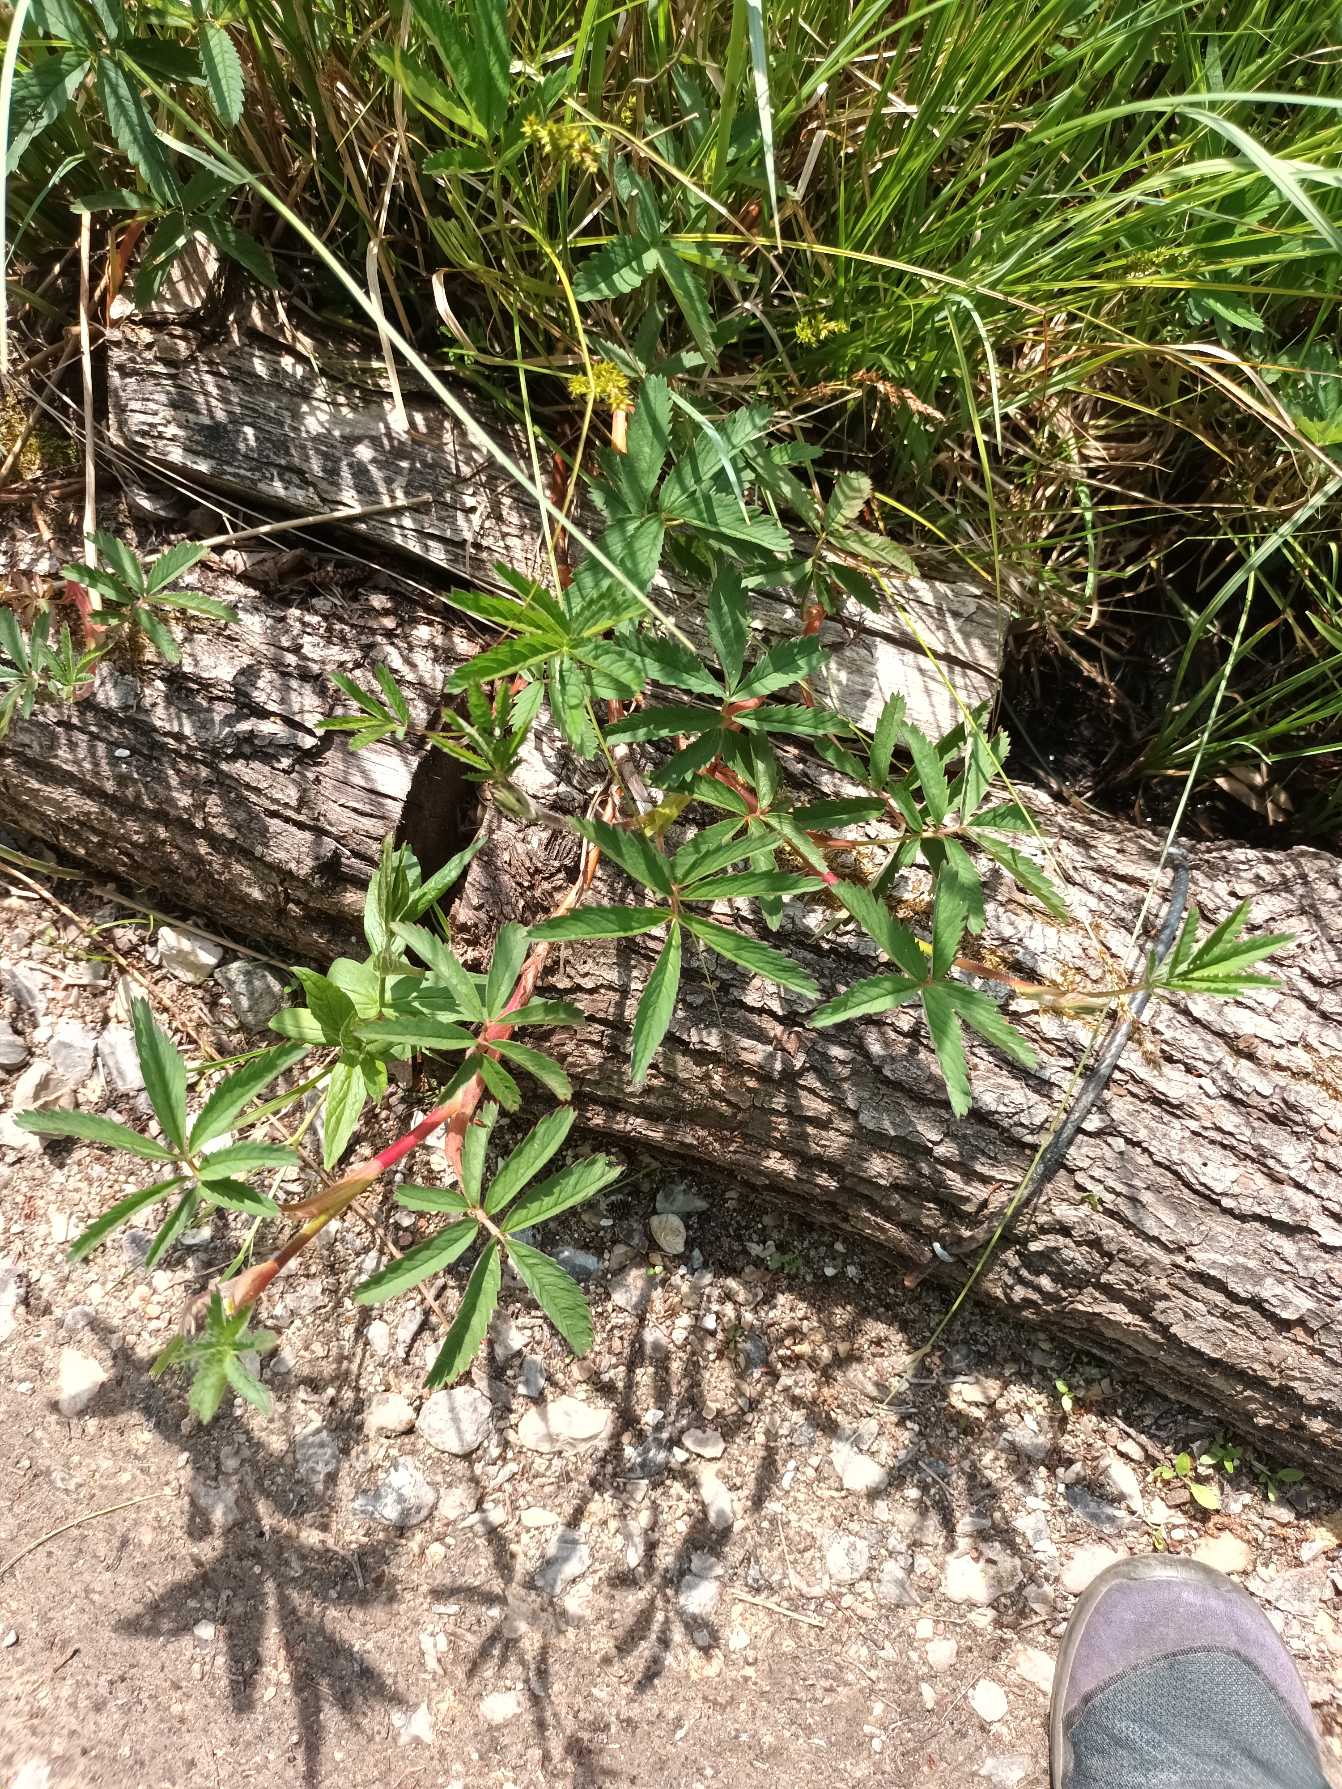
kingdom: Plantae
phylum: Tracheophyta
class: Magnoliopsida
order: Rosales
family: Rosaceae
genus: Comarum
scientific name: Comarum palustre
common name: Kragefod
